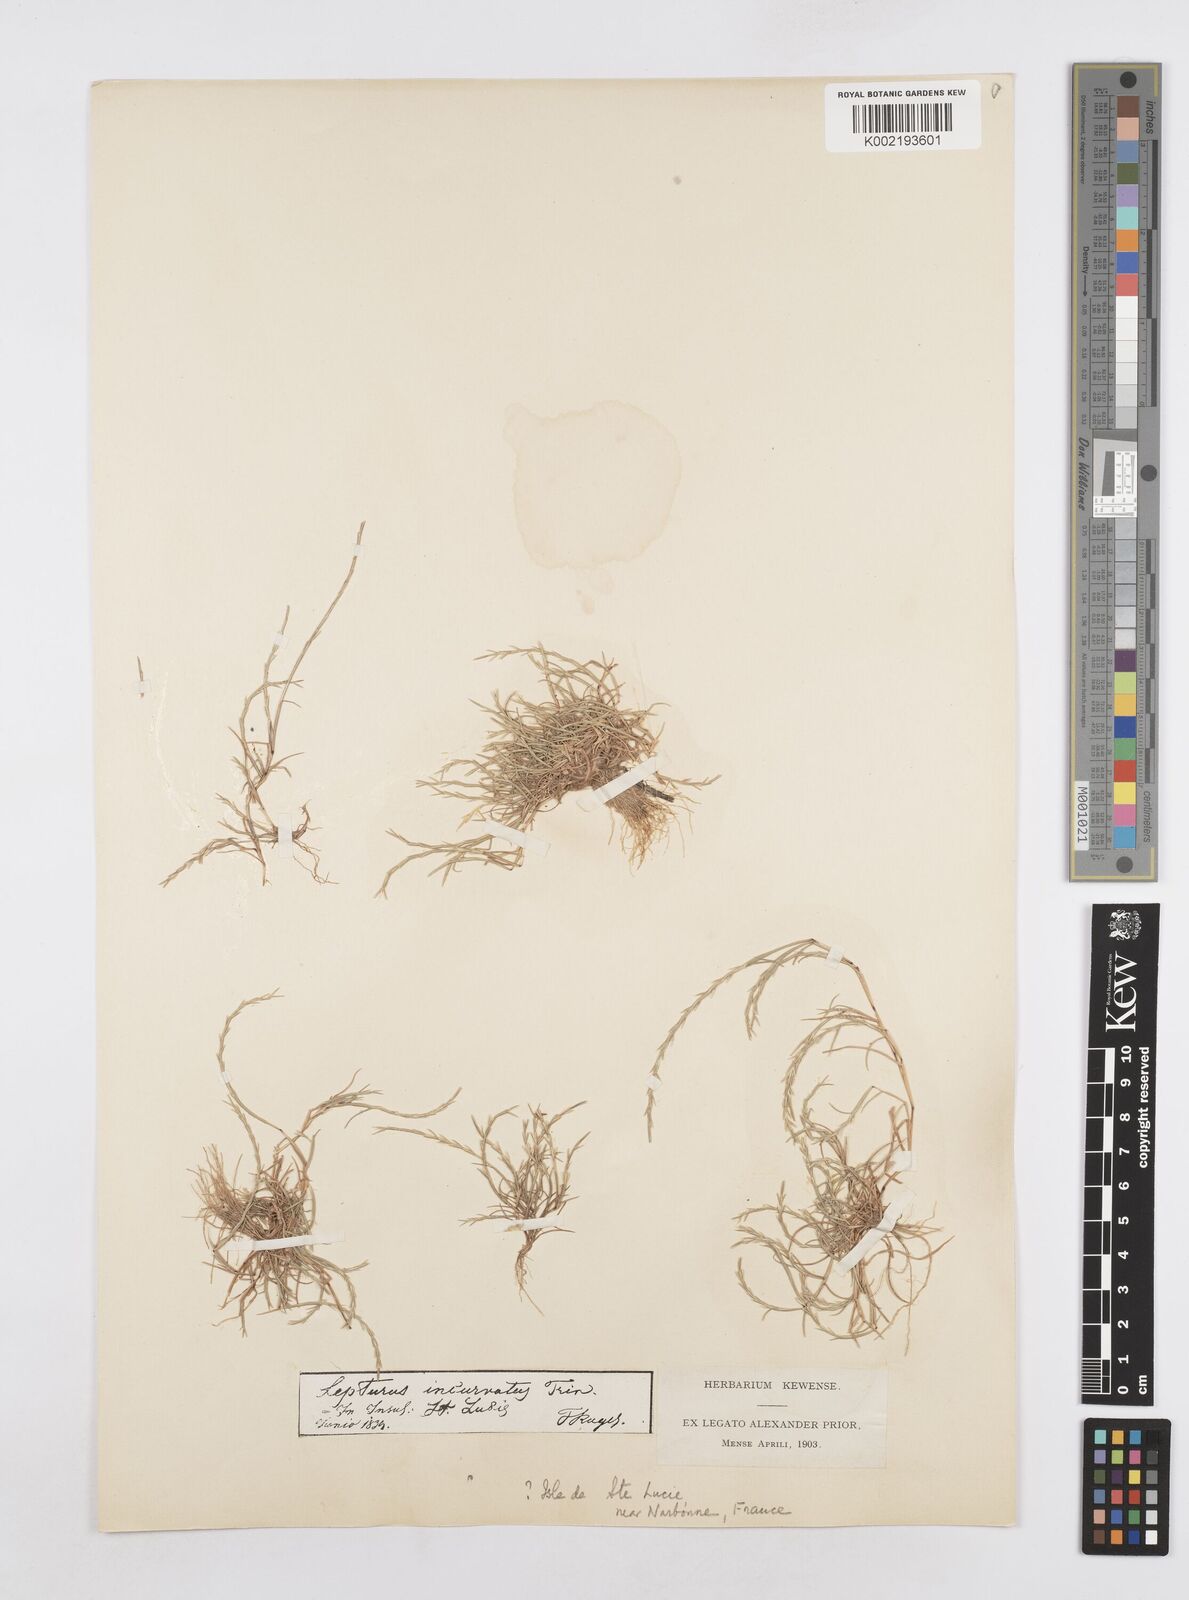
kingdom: Plantae
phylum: Tracheophyta
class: Liliopsida
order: Poales
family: Poaceae
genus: Parapholis
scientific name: Parapholis filiformis
